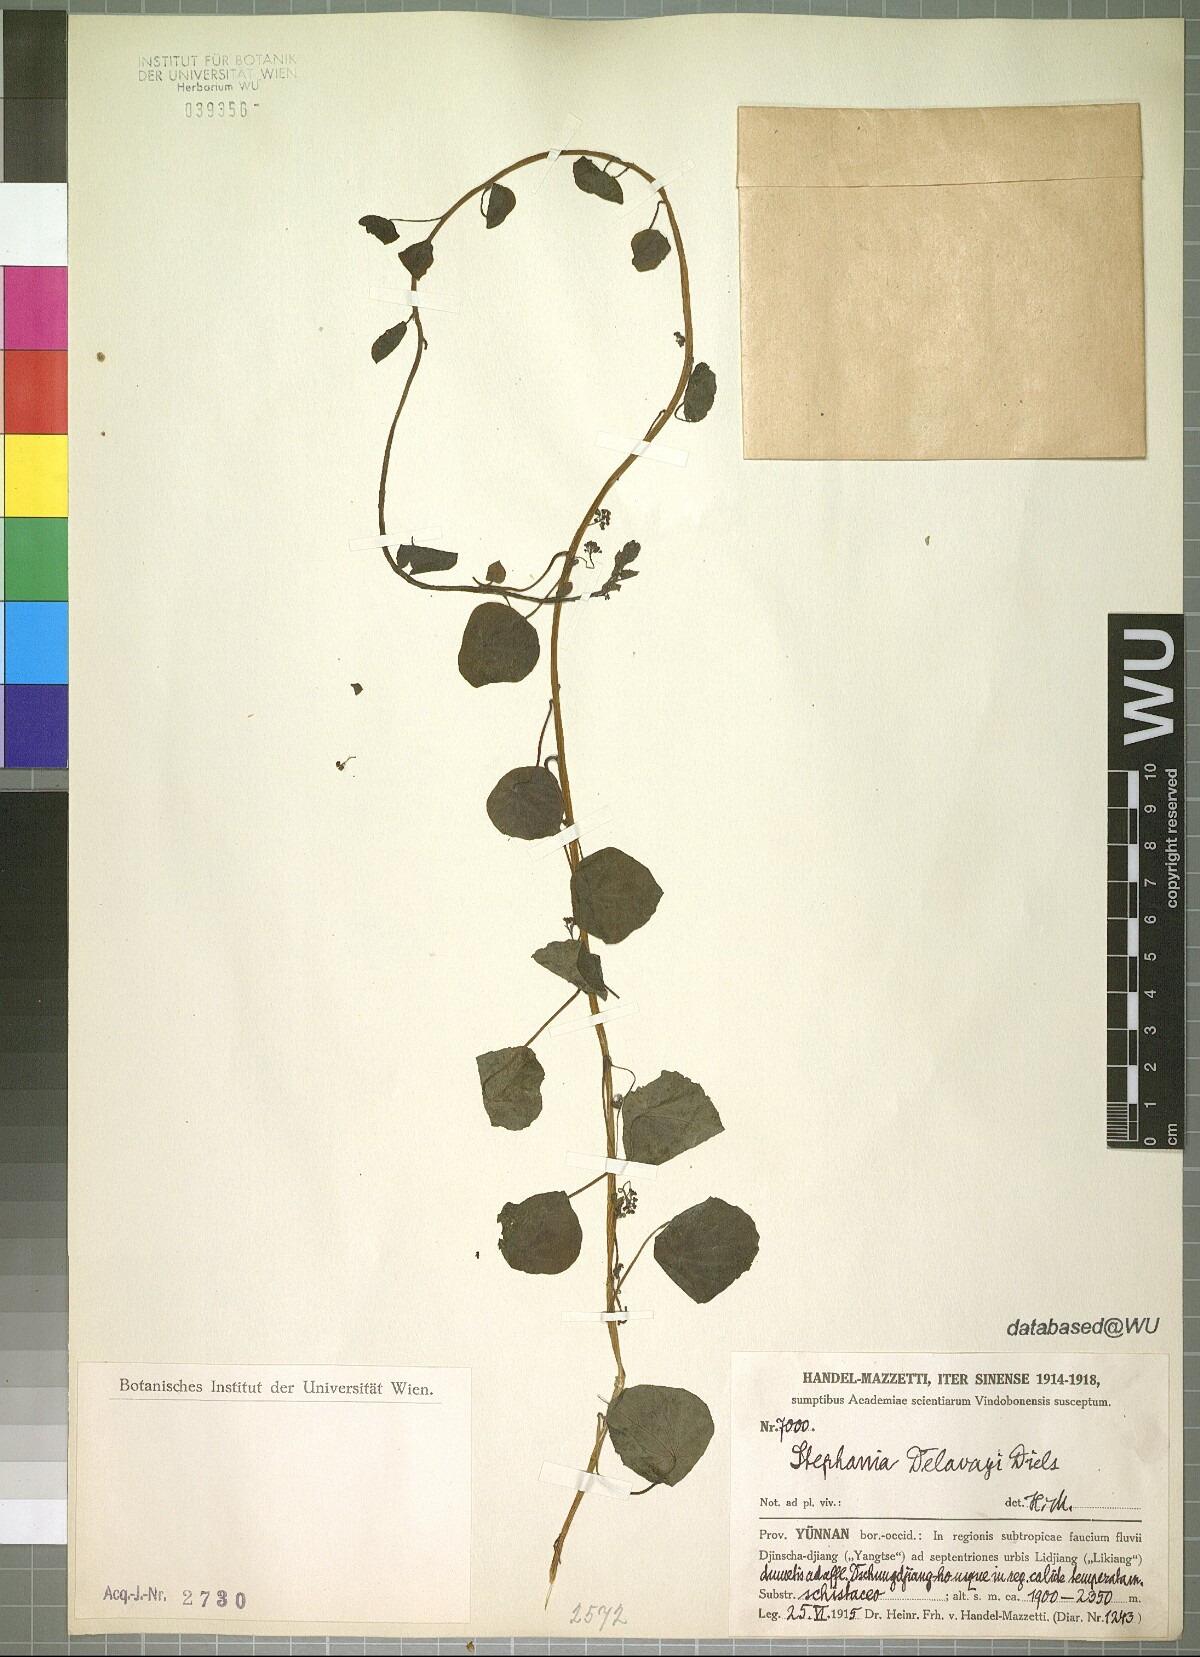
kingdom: Plantae
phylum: Tracheophyta
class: Magnoliopsida
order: Ranunculales
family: Menispermaceae
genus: Stephania
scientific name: Stephania delavayi
